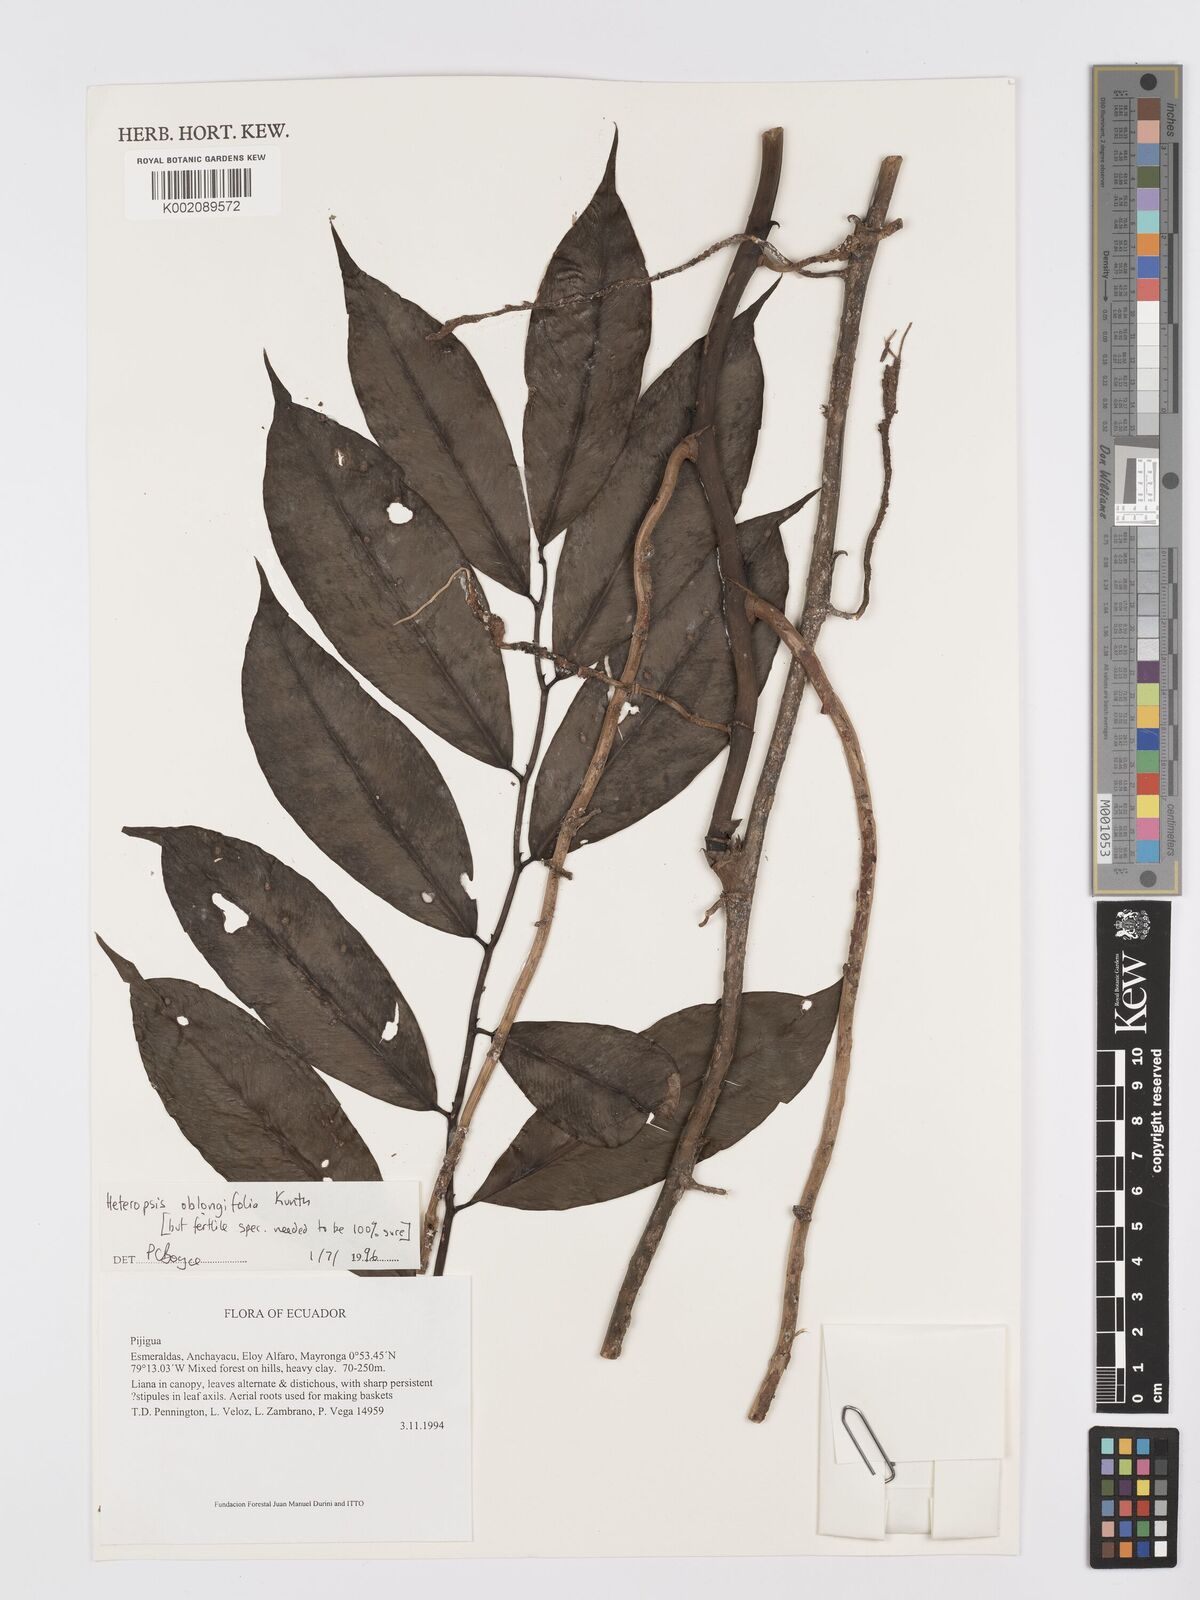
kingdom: Plantae
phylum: Tracheophyta
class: Liliopsida
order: Alismatales
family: Araceae
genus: Heteropsis
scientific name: Heteropsis oblongifolia
